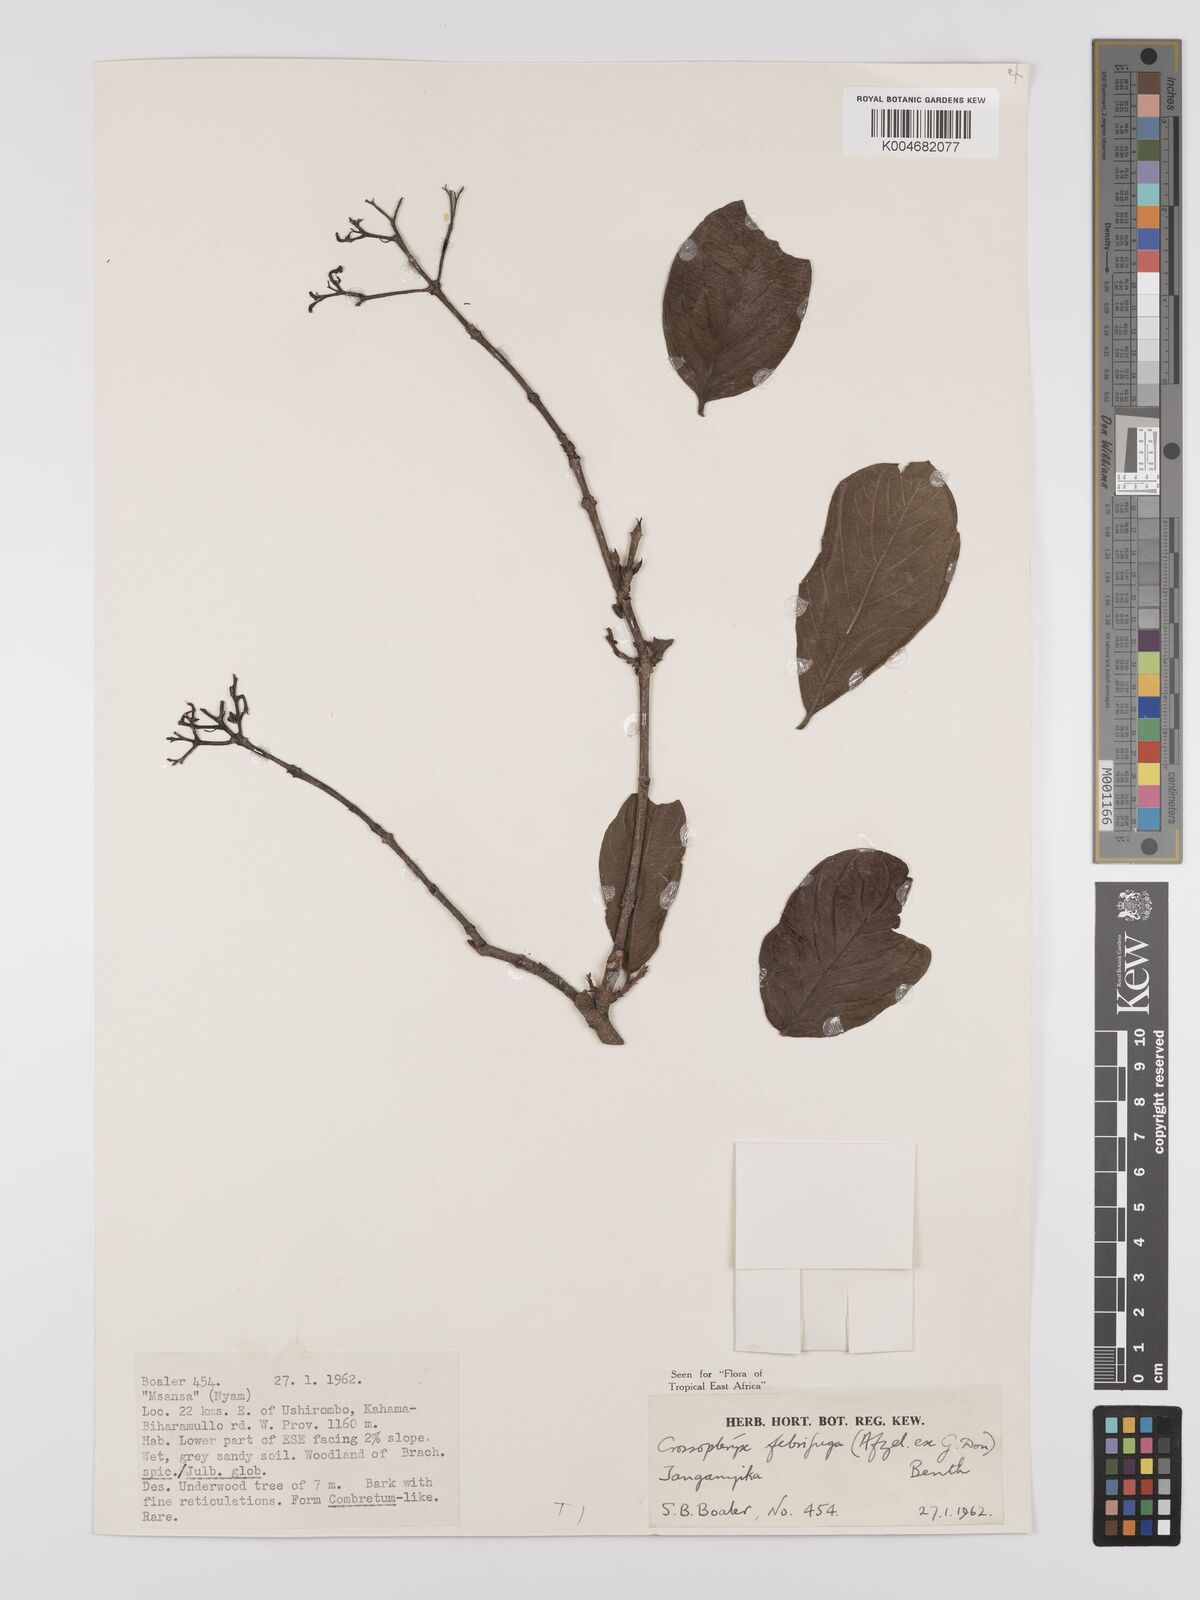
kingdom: Plantae
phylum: Tracheophyta
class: Magnoliopsida
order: Gentianales
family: Rubiaceae
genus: Crossopteryx
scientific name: Crossopteryx febrifuga
